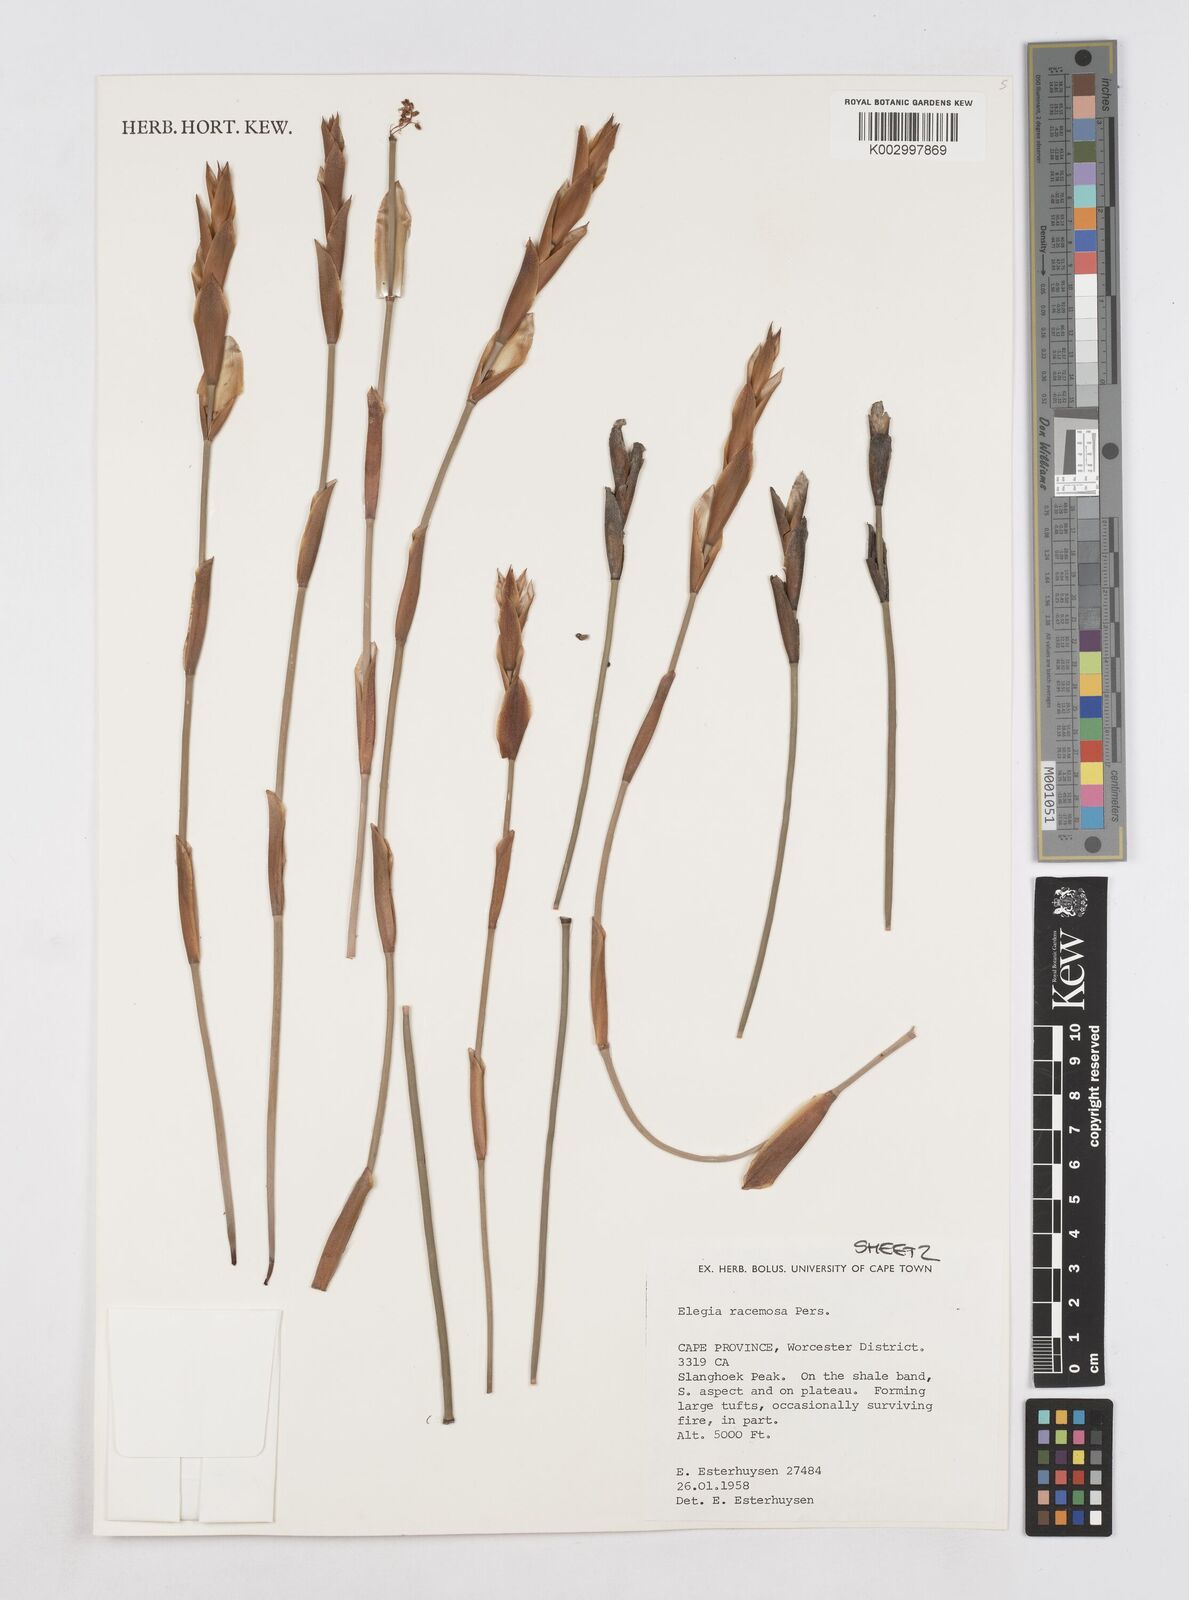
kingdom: Plantae
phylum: Tracheophyta
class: Liliopsida
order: Poales
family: Restionaceae
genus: Elegia
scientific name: Elegia racemosa
